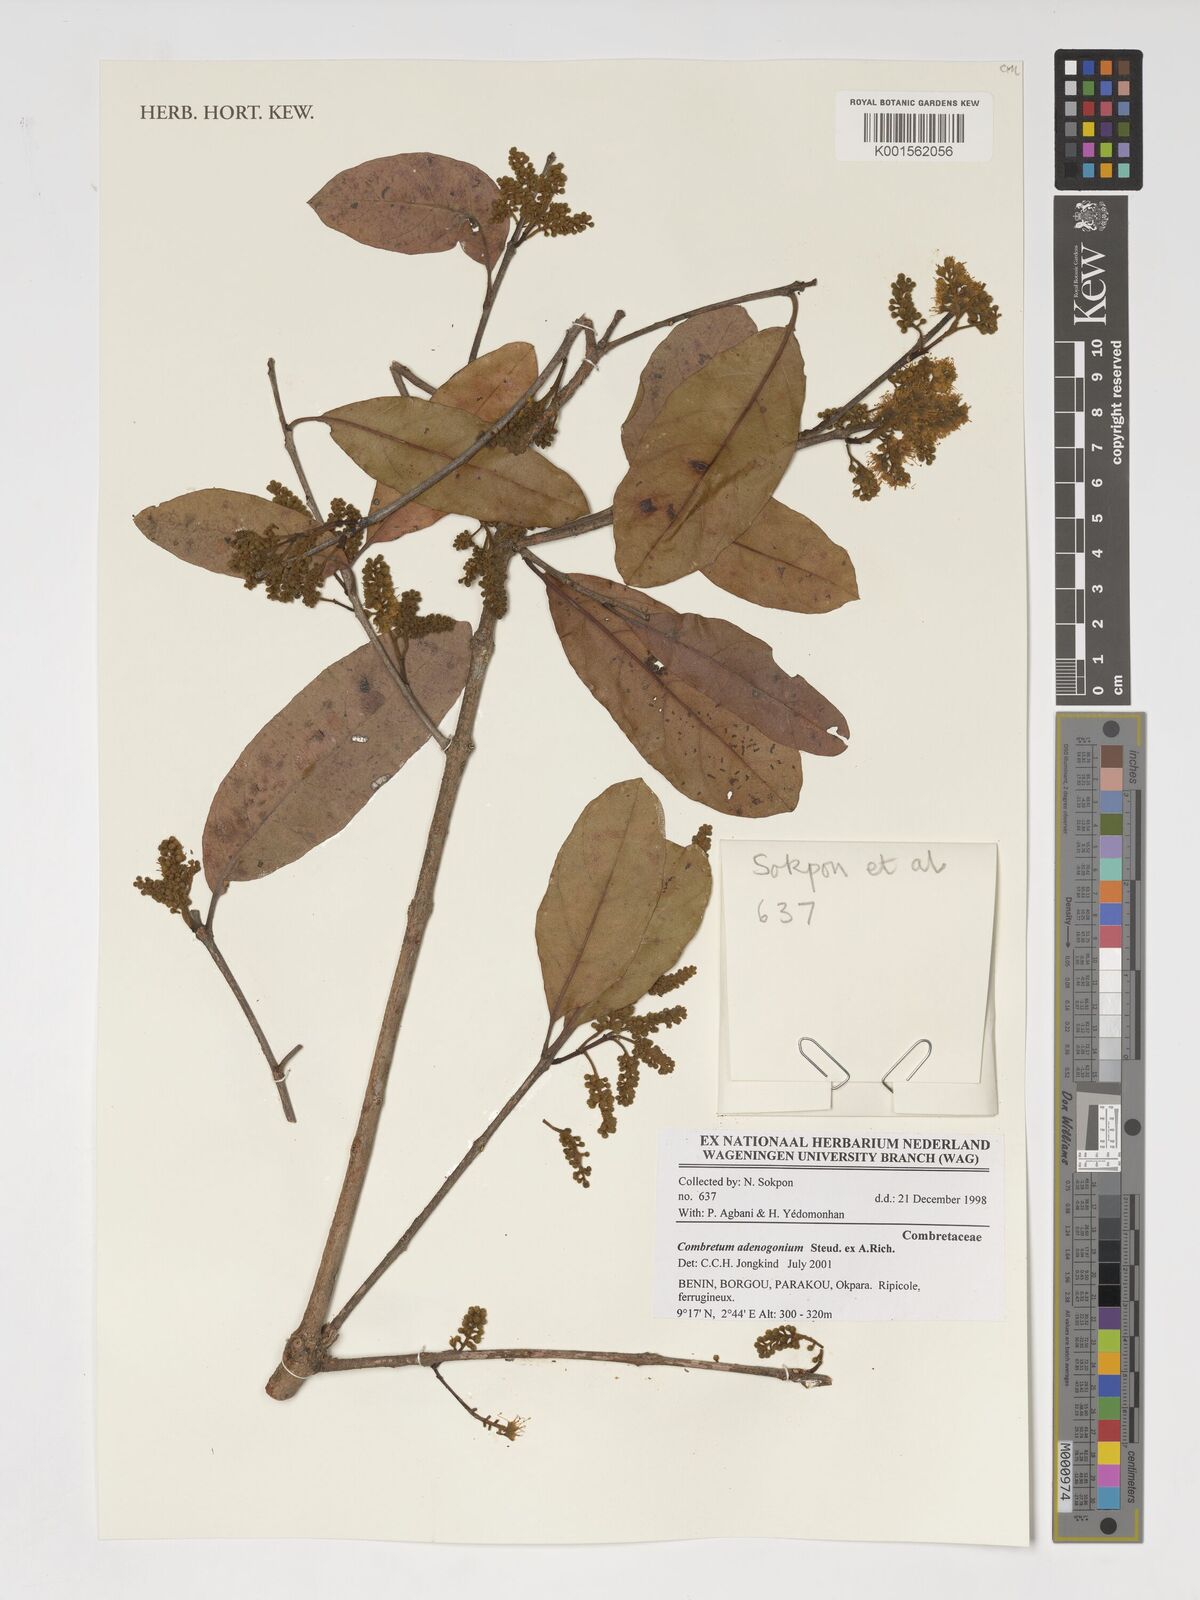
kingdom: Plantae
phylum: Tracheophyta
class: Magnoliopsida
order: Myrtales
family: Combretaceae
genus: Combretum
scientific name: Combretum adenogonium
